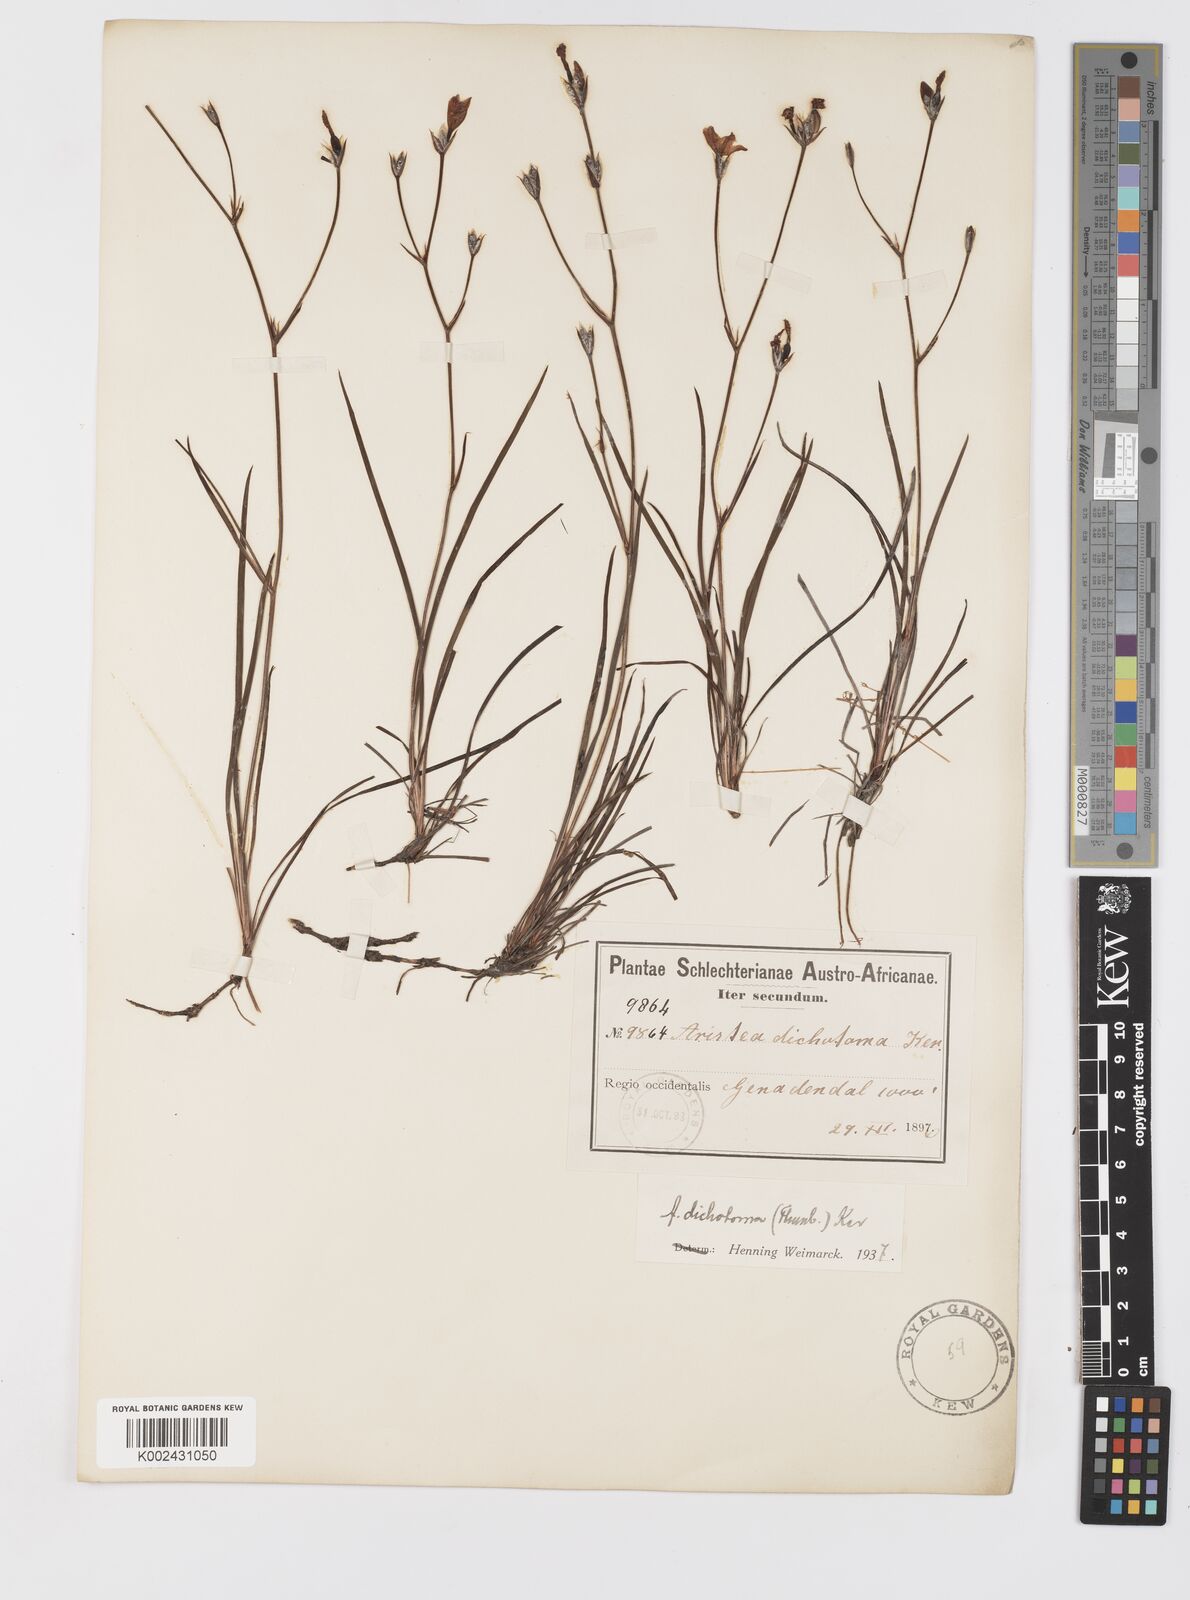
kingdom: Plantae
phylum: Tracheophyta
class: Liliopsida
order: Asparagales
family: Iridaceae
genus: Aristea
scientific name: Aristea dichotoma
